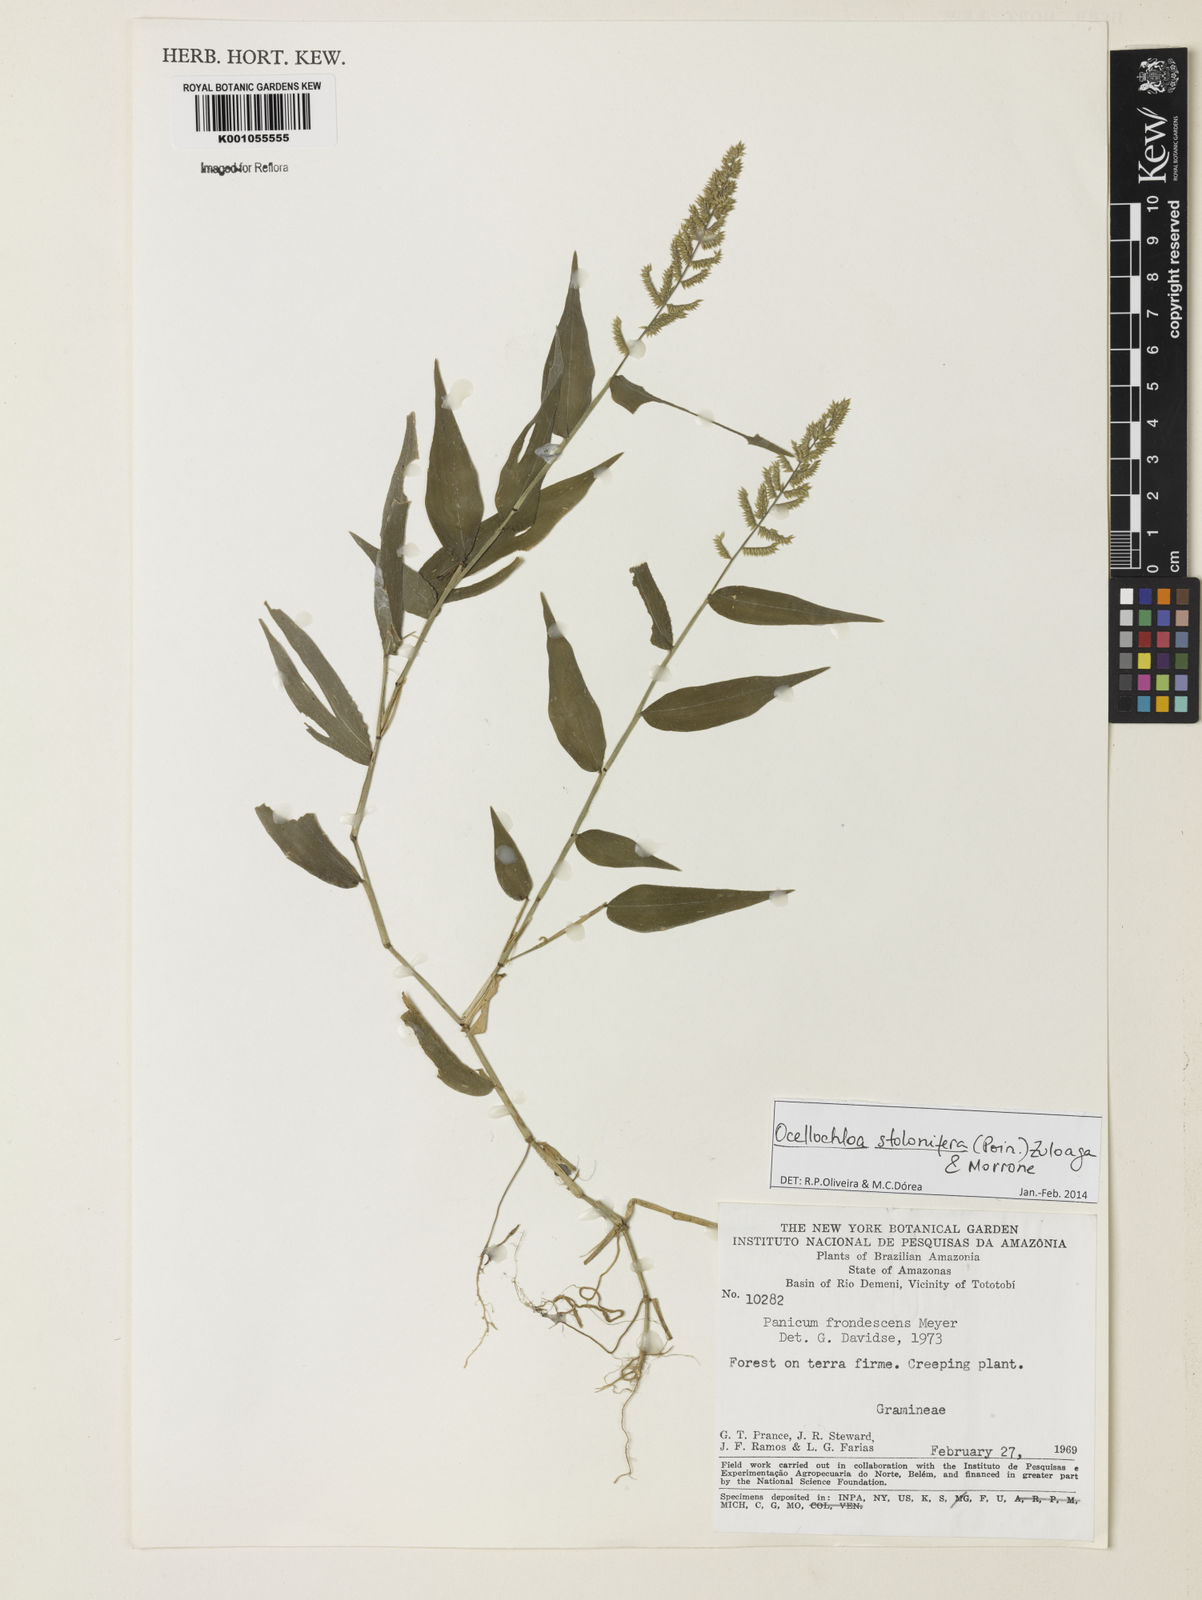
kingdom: Plantae
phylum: Tracheophyta
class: Liliopsida
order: Poales
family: Poaceae
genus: Ocellochloa
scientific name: Ocellochloa stolonifera
